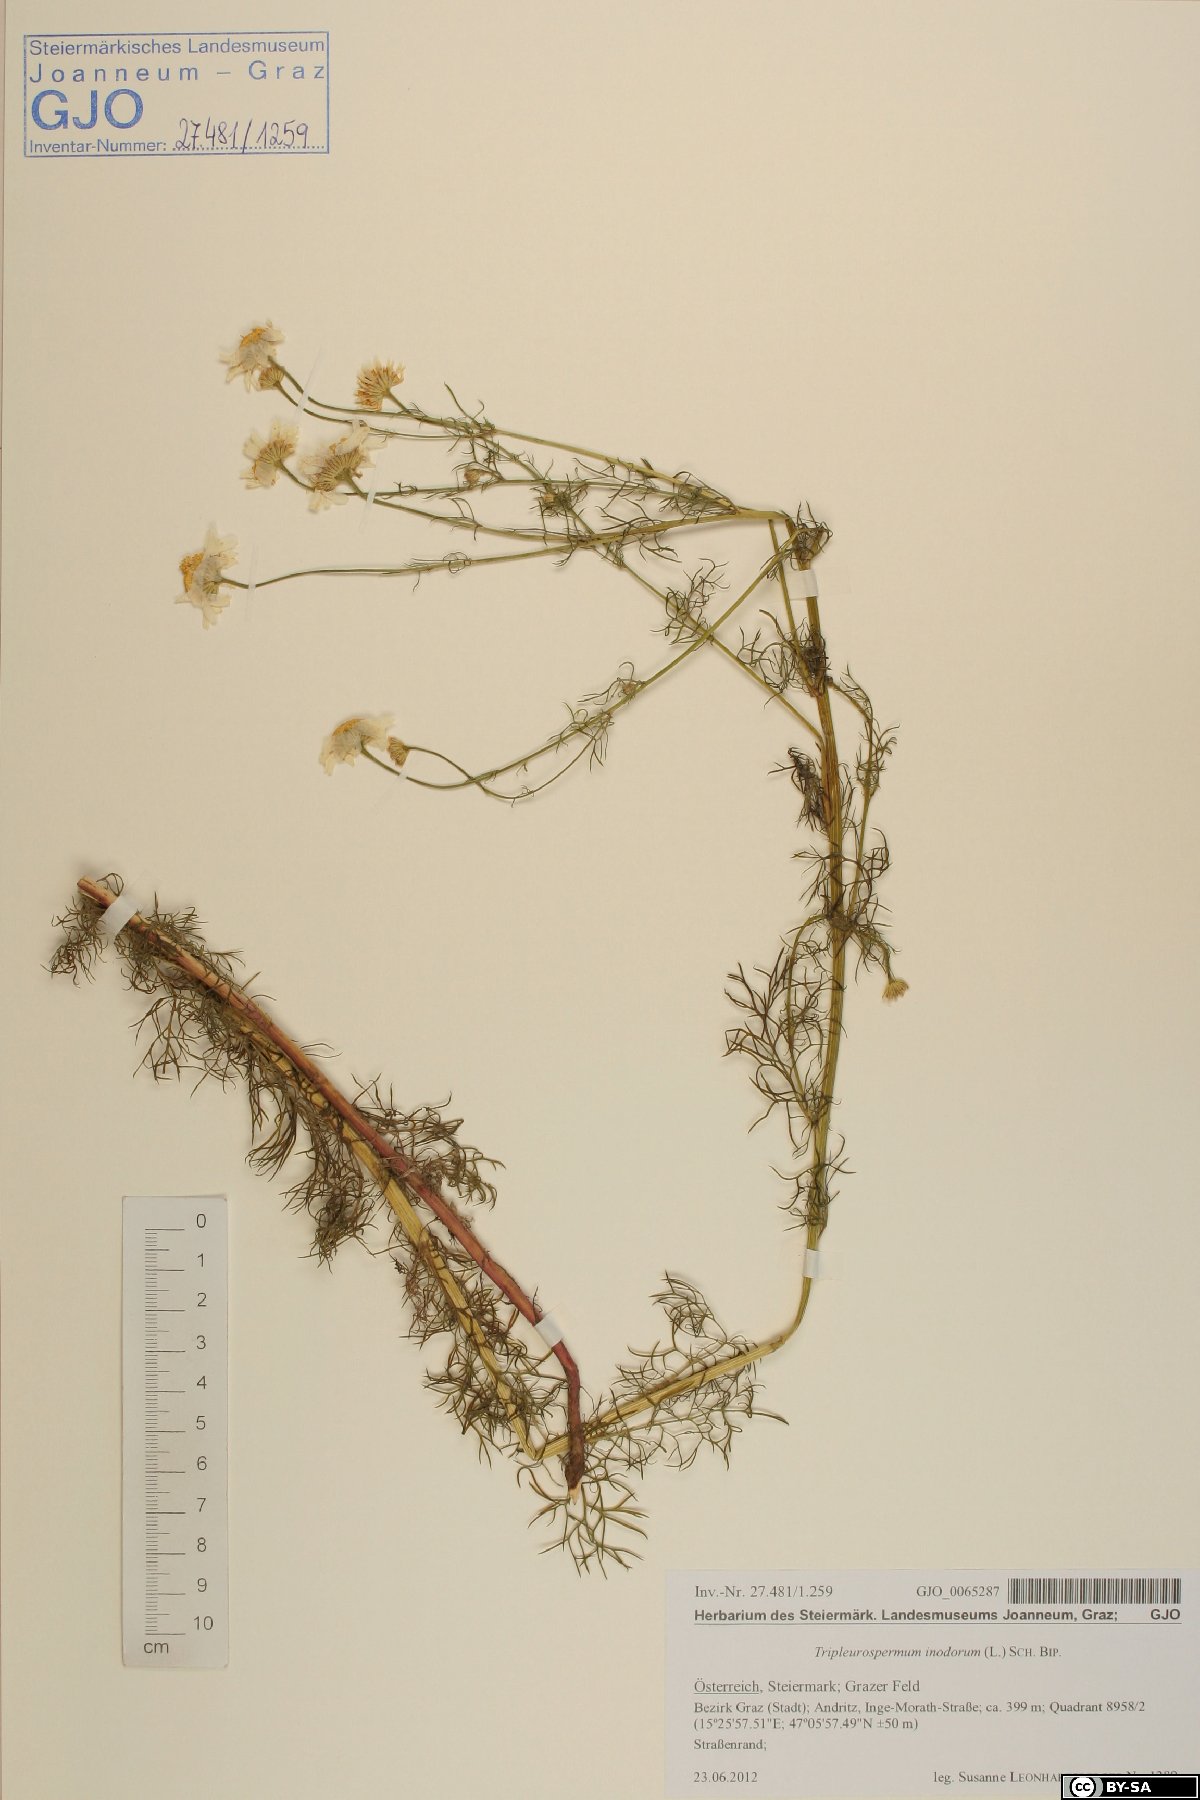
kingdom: Plantae
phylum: Tracheophyta
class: Magnoliopsida
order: Asterales
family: Asteraceae
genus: Tripleurospermum
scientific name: Tripleurospermum inodorum
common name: Scentless mayweed
